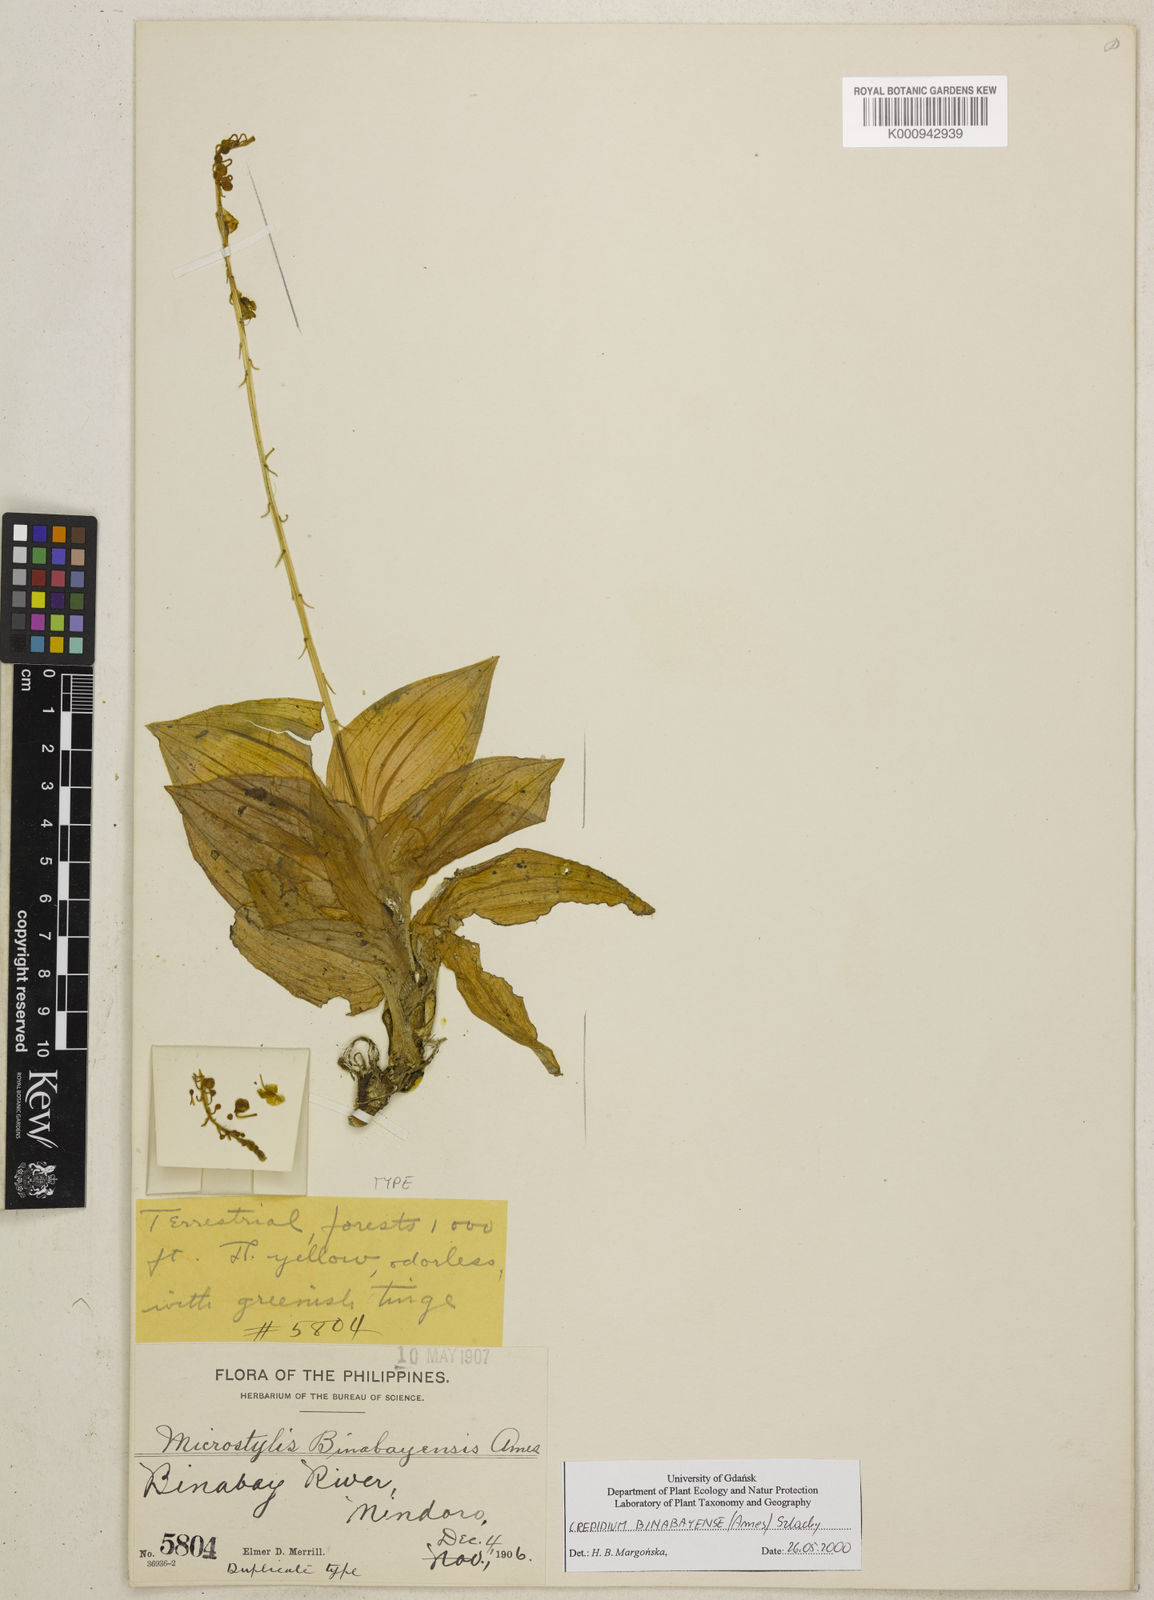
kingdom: Plantae
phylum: Tracheophyta
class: Liliopsida
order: Asparagales
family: Orchidaceae
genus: Crepidium
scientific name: Crepidium binabayense
